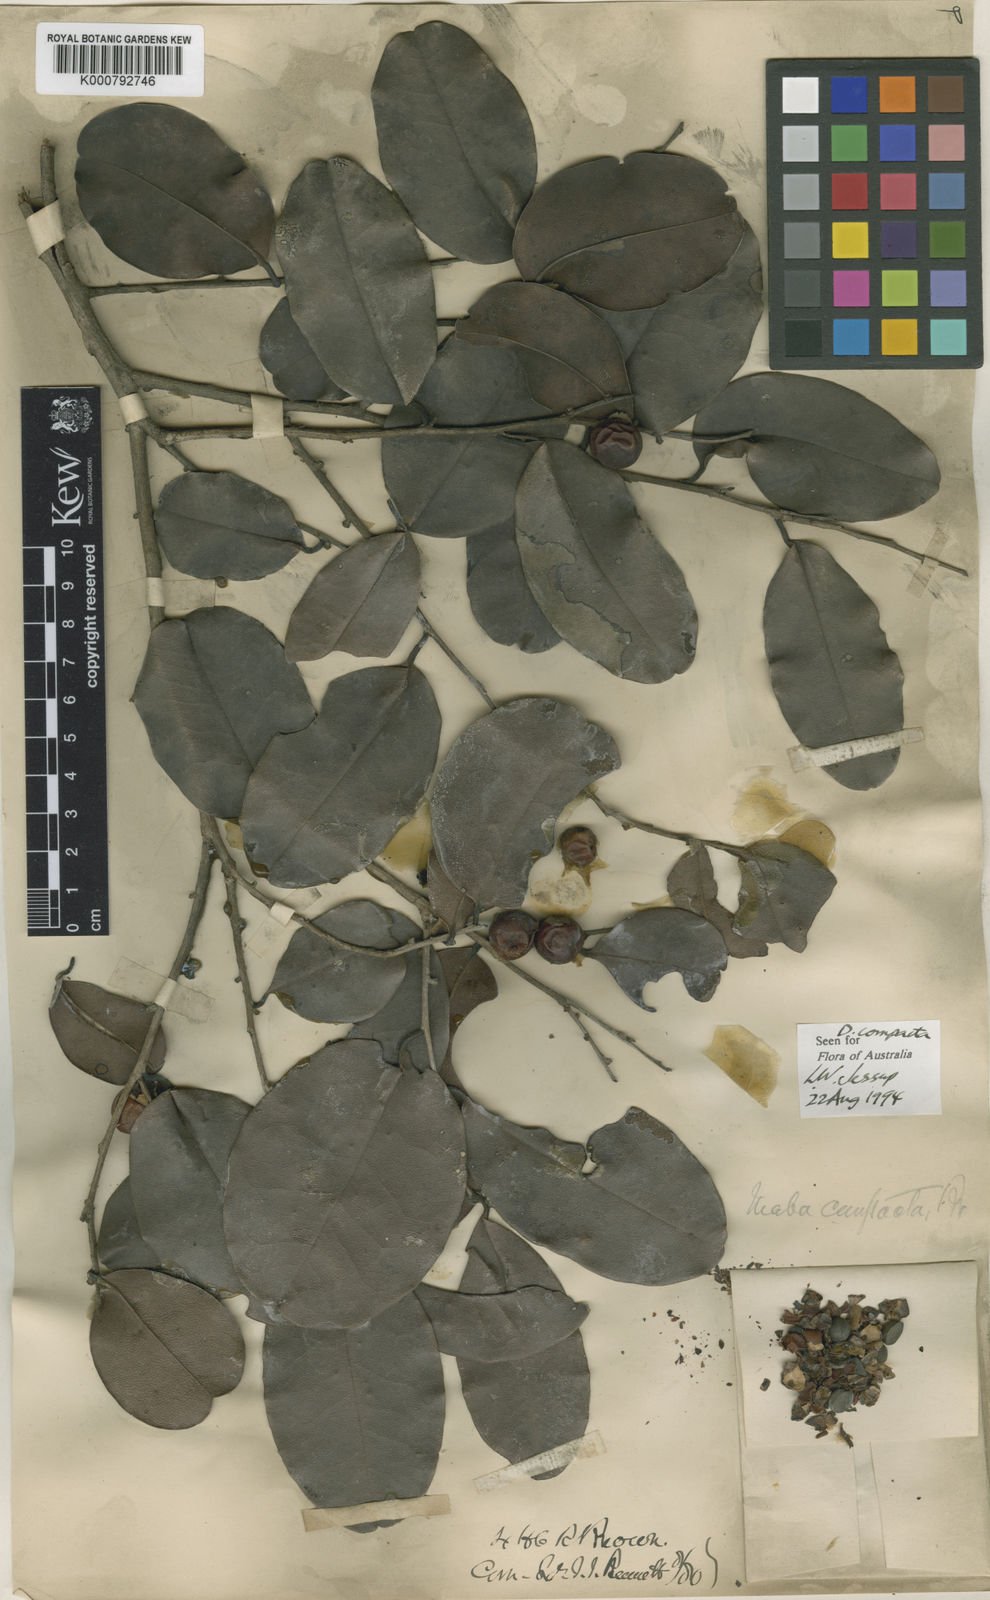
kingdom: Plantae
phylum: Tracheophyta
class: Magnoliopsida
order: Ericales
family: Ebenaceae
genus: Diospyros
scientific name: Diospyros compacta
